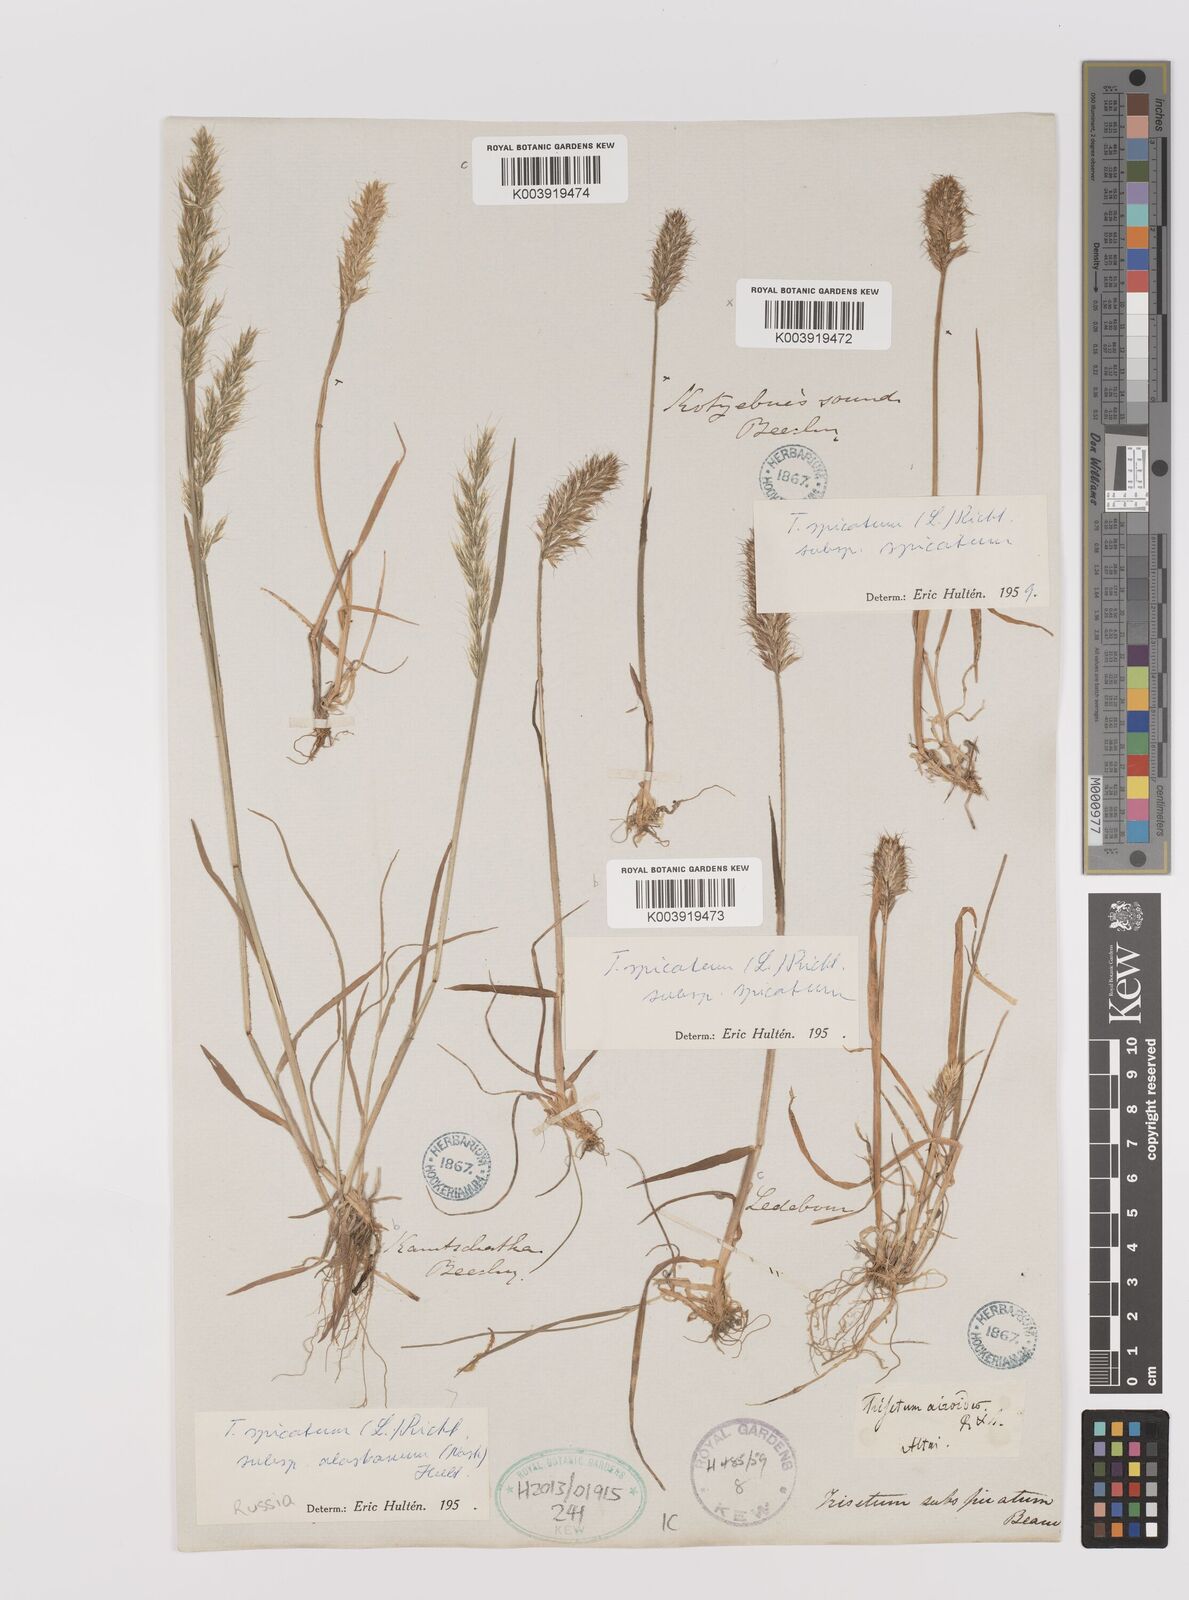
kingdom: Plantae
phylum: Tracheophyta
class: Liliopsida
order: Poales
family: Poaceae
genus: Koeleria
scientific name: Koeleria spicata
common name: Mountain trisetum
